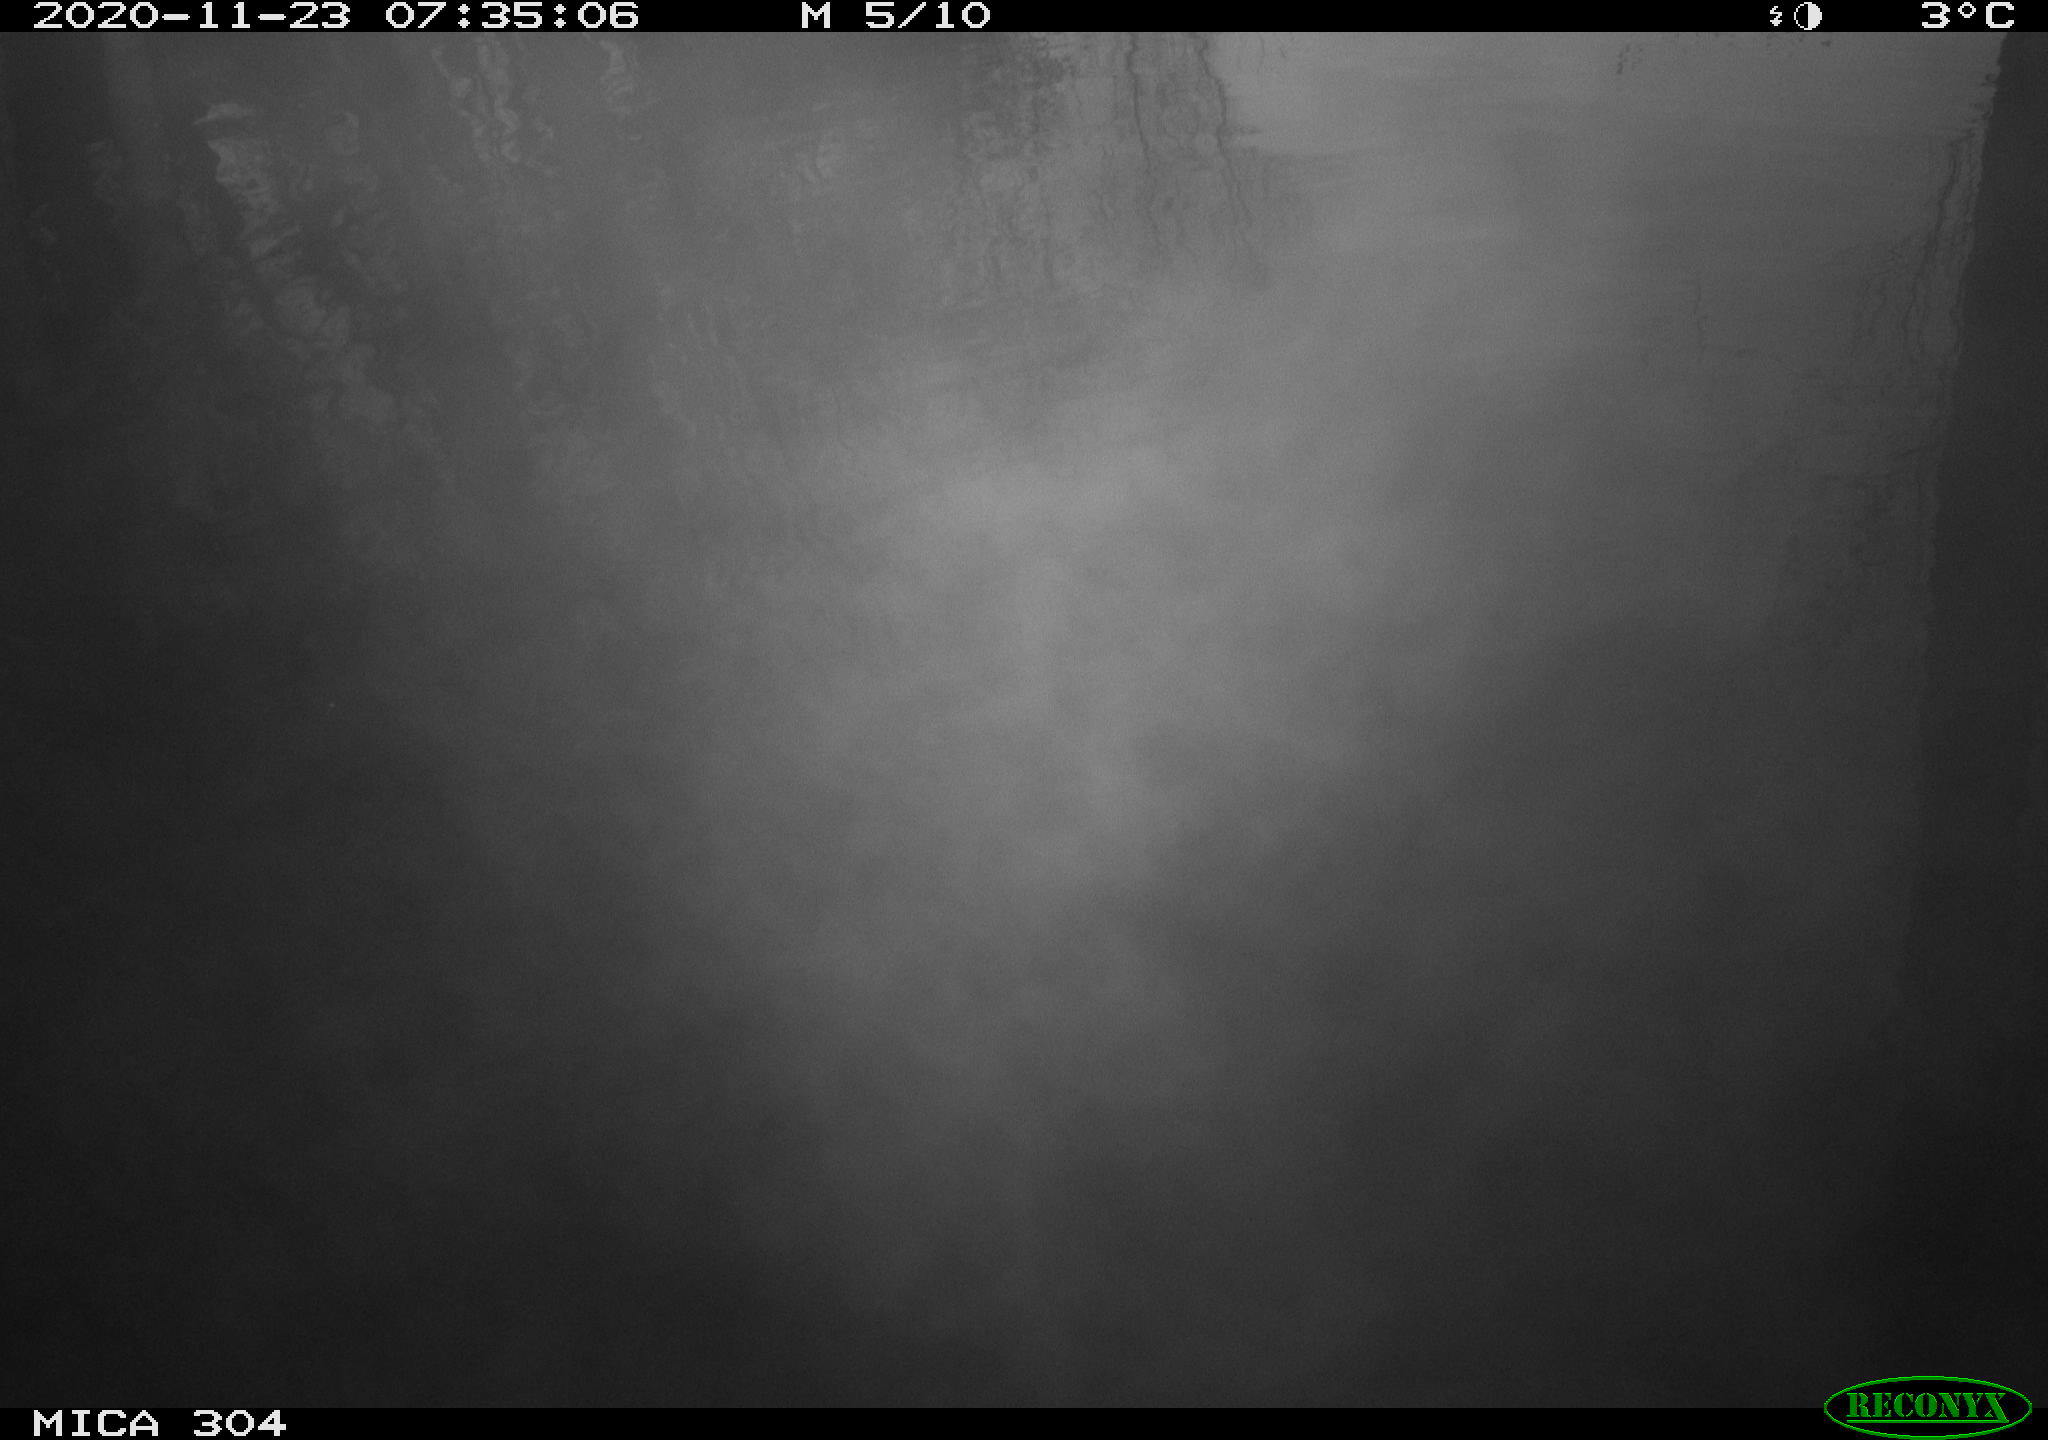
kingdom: Animalia
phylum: Chordata
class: Aves
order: Anseriformes
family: Anatidae
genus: Anas
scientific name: Anas platyrhynchos
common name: Mallard
